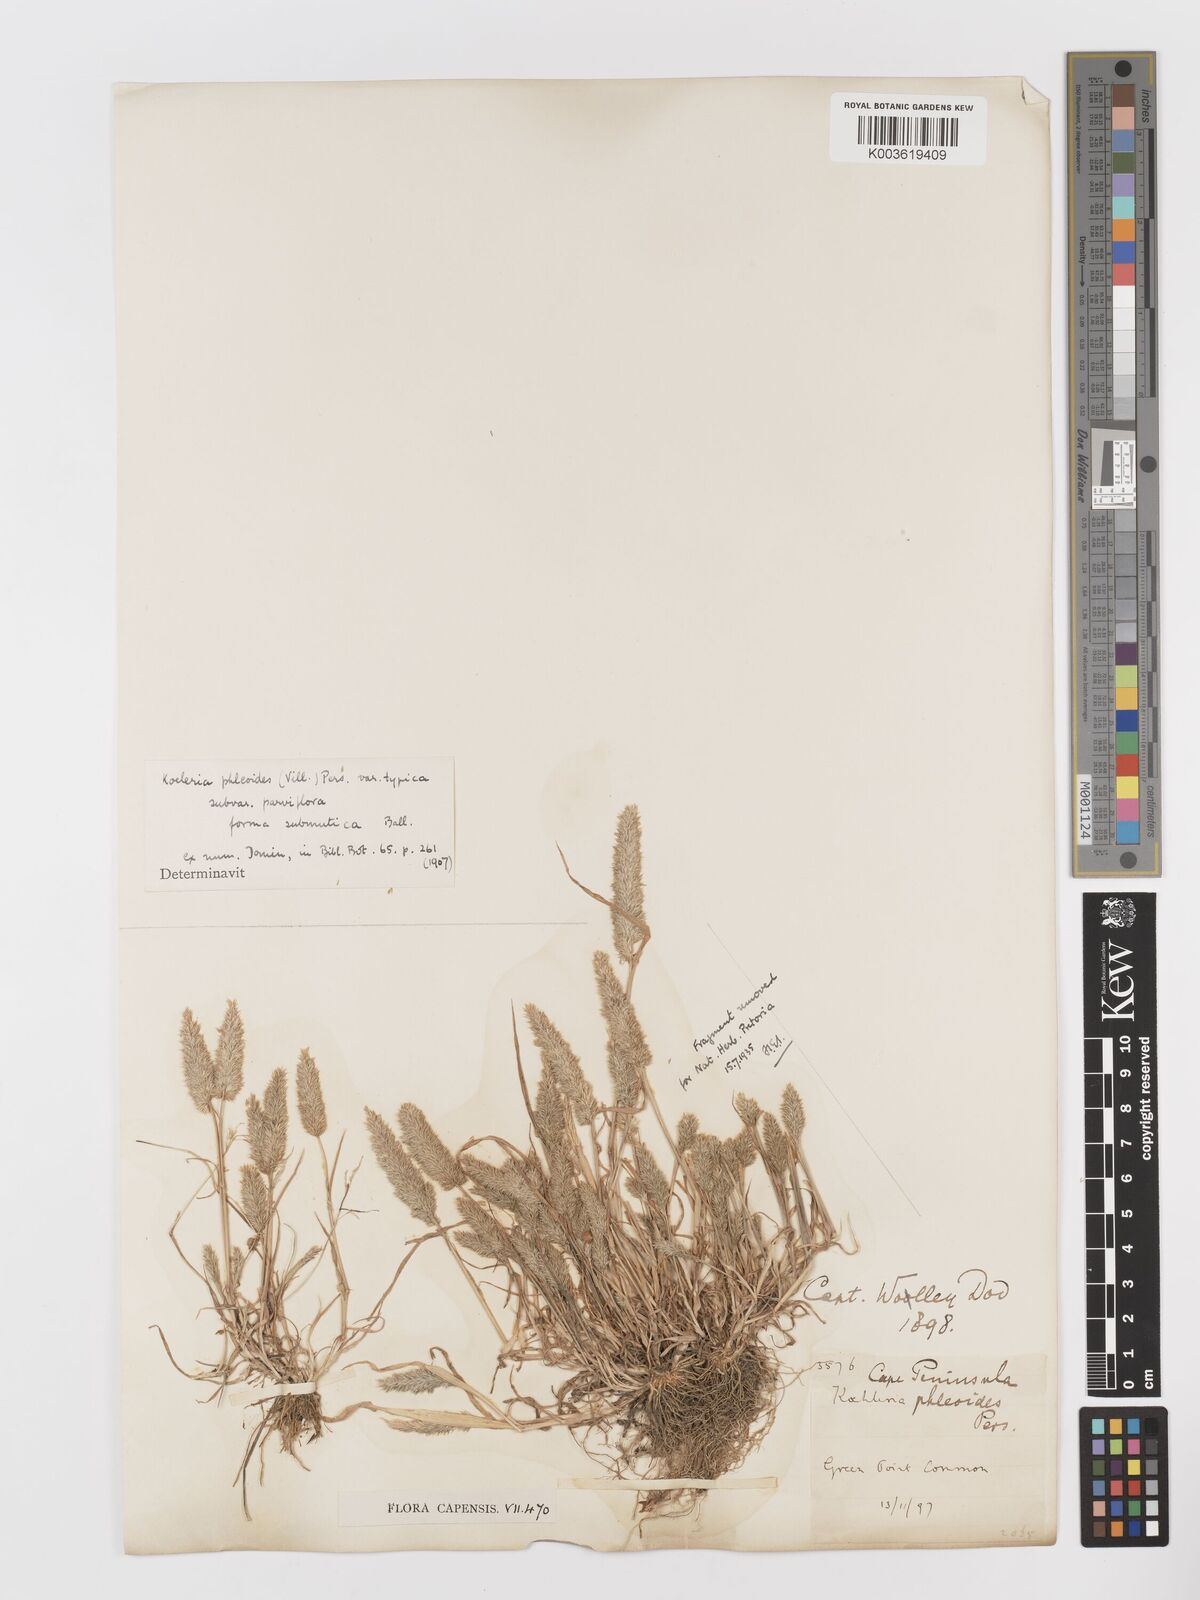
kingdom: Plantae
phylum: Tracheophyta
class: Liliopsida
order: Poales
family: Poaceae
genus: Rostraria
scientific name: Rostraria cristata
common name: Mediterranean hair-grass
